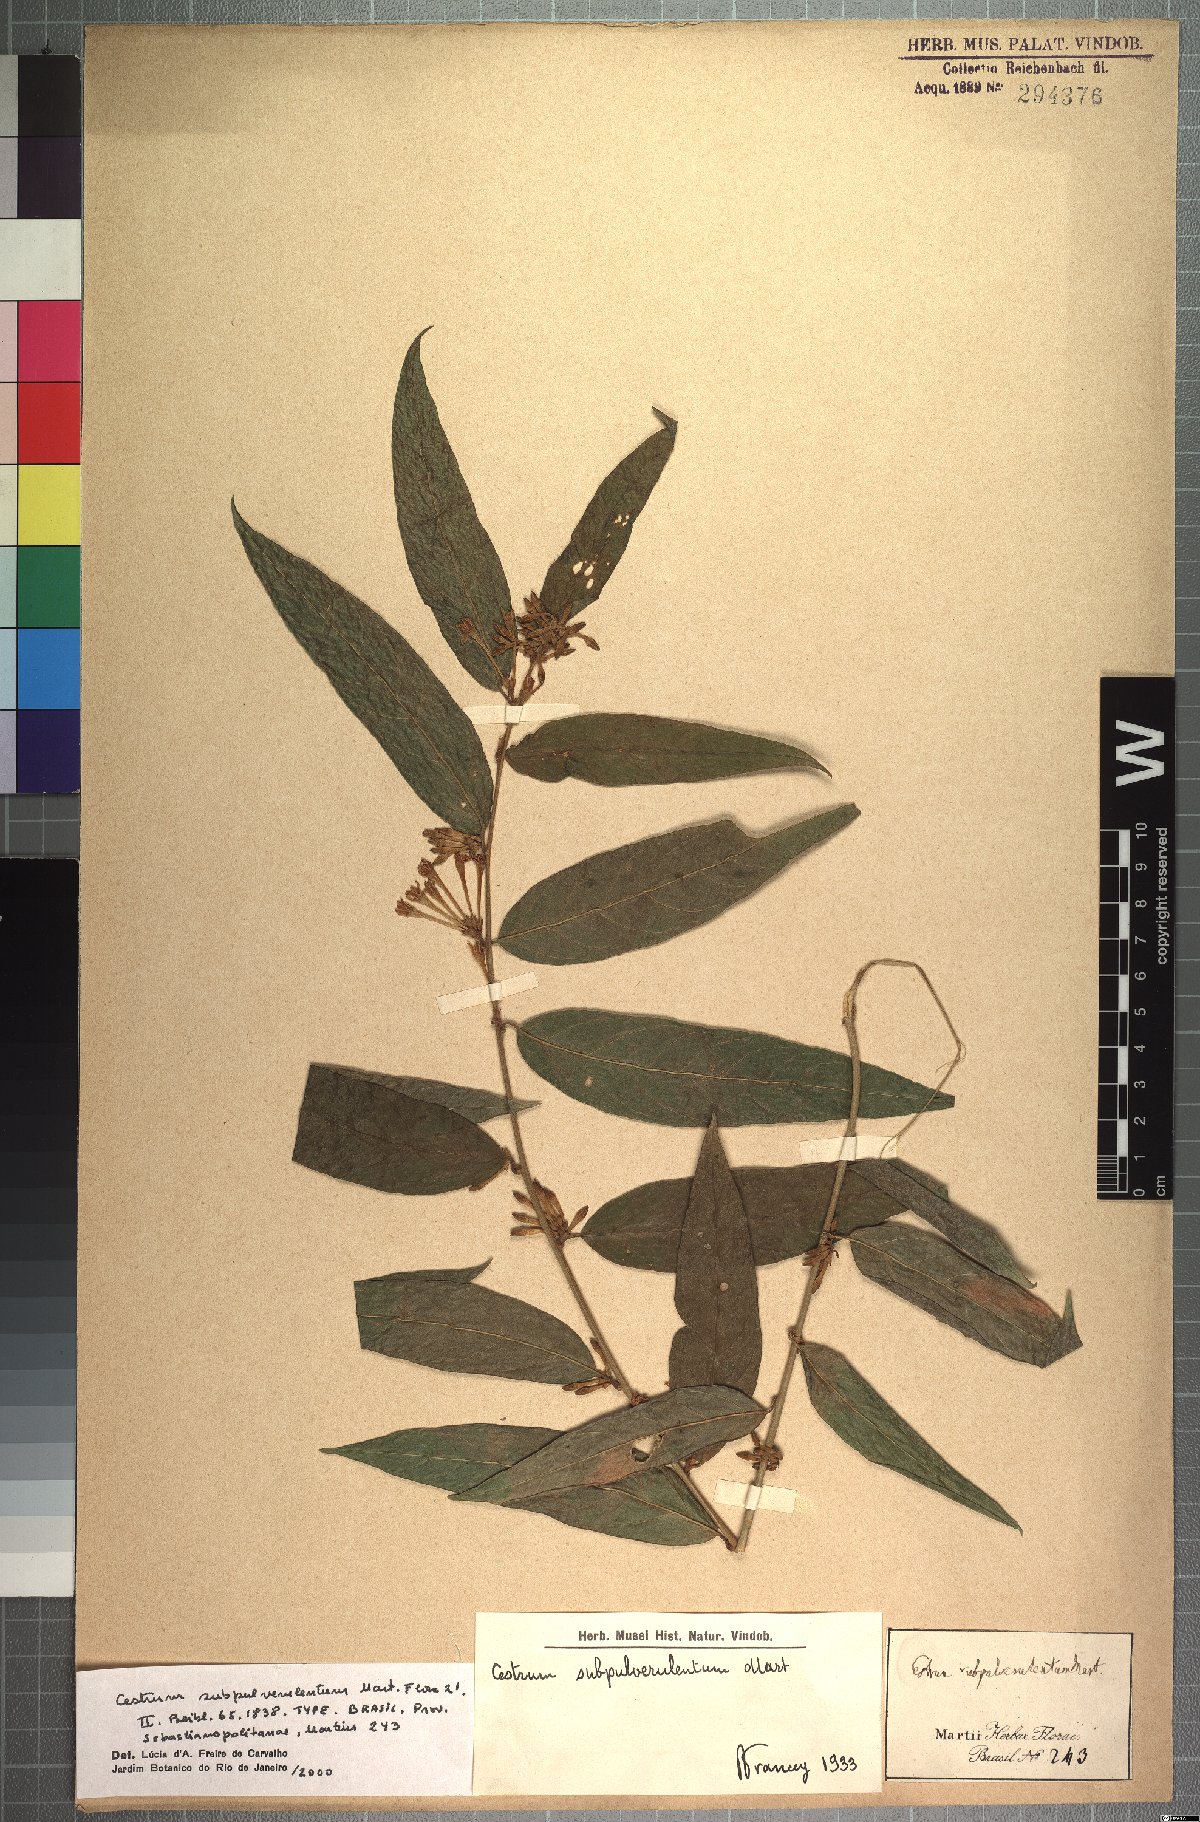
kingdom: Plantae
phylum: Tracheophyta
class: Magnoliopsida
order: Solanales
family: Solanaceae
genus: Cestrum
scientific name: Cestrum subpulverulentum
